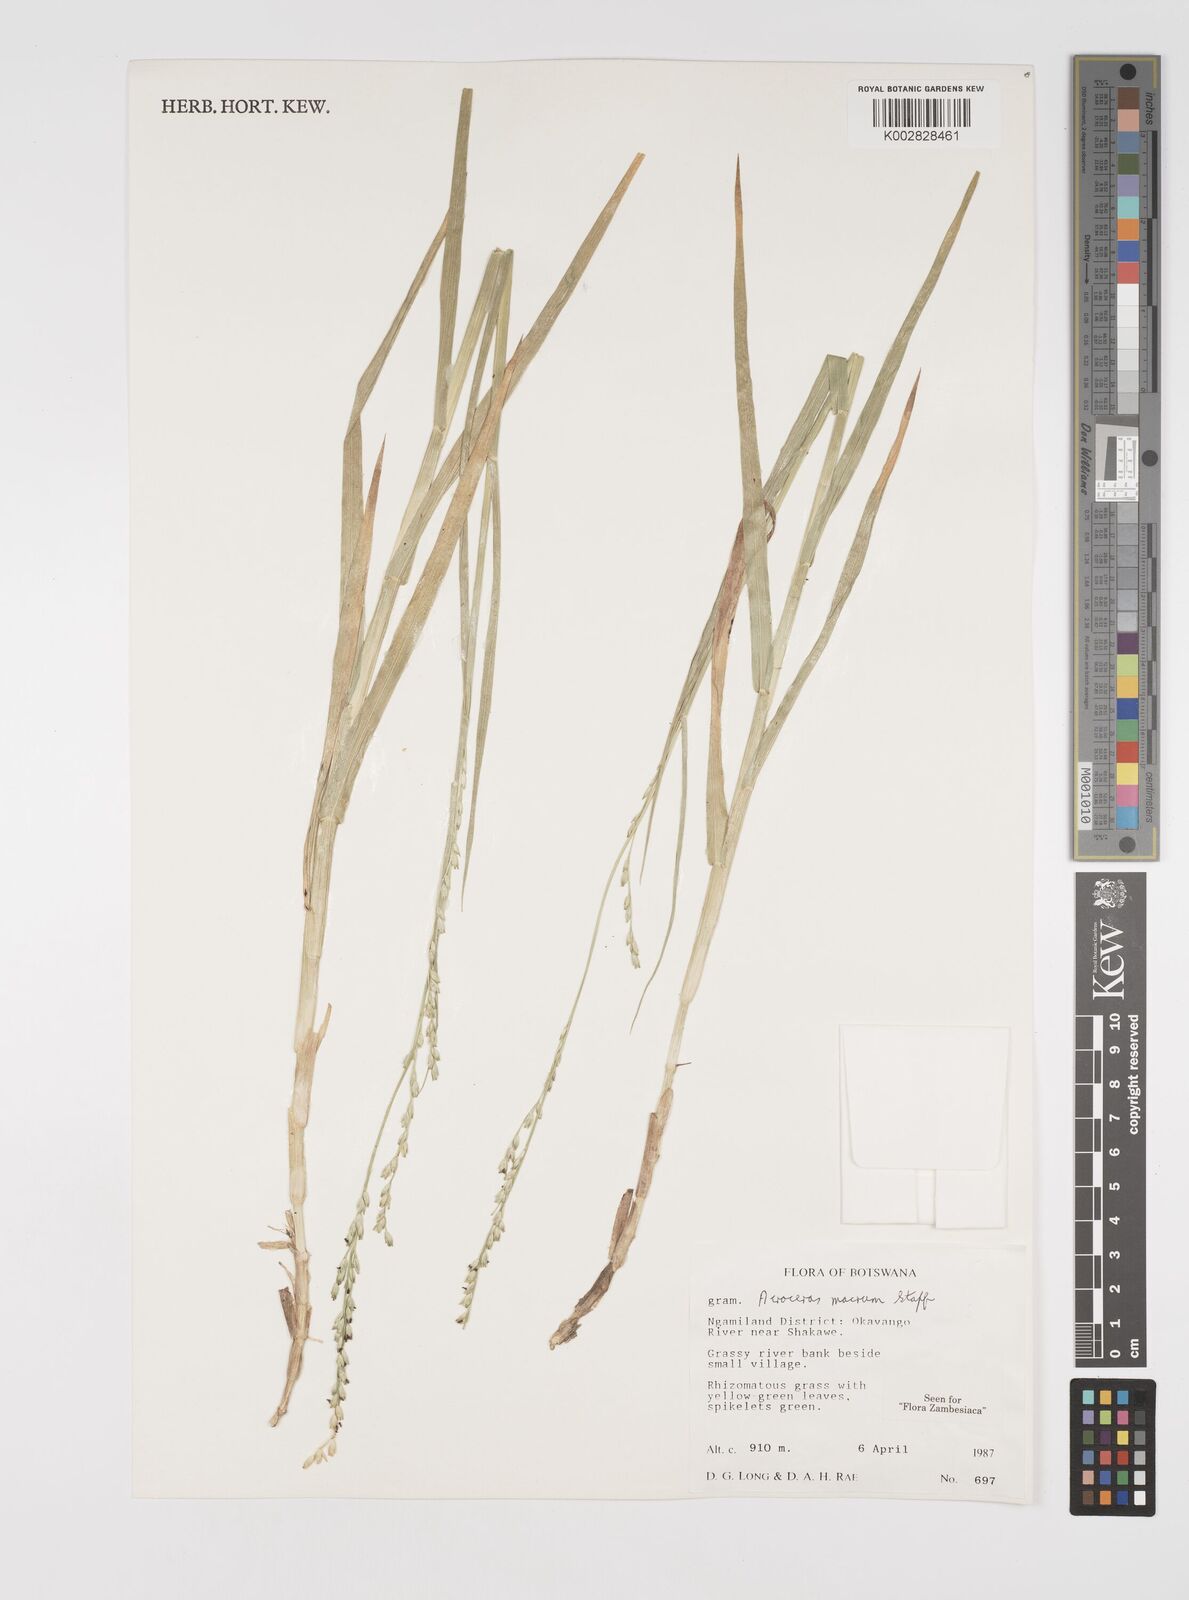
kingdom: Plantae
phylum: Tracheophyta
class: Liliopsida
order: Poales
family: Poaceae
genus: Acroceras
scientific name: Acroceras macrum
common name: Nyl grass
